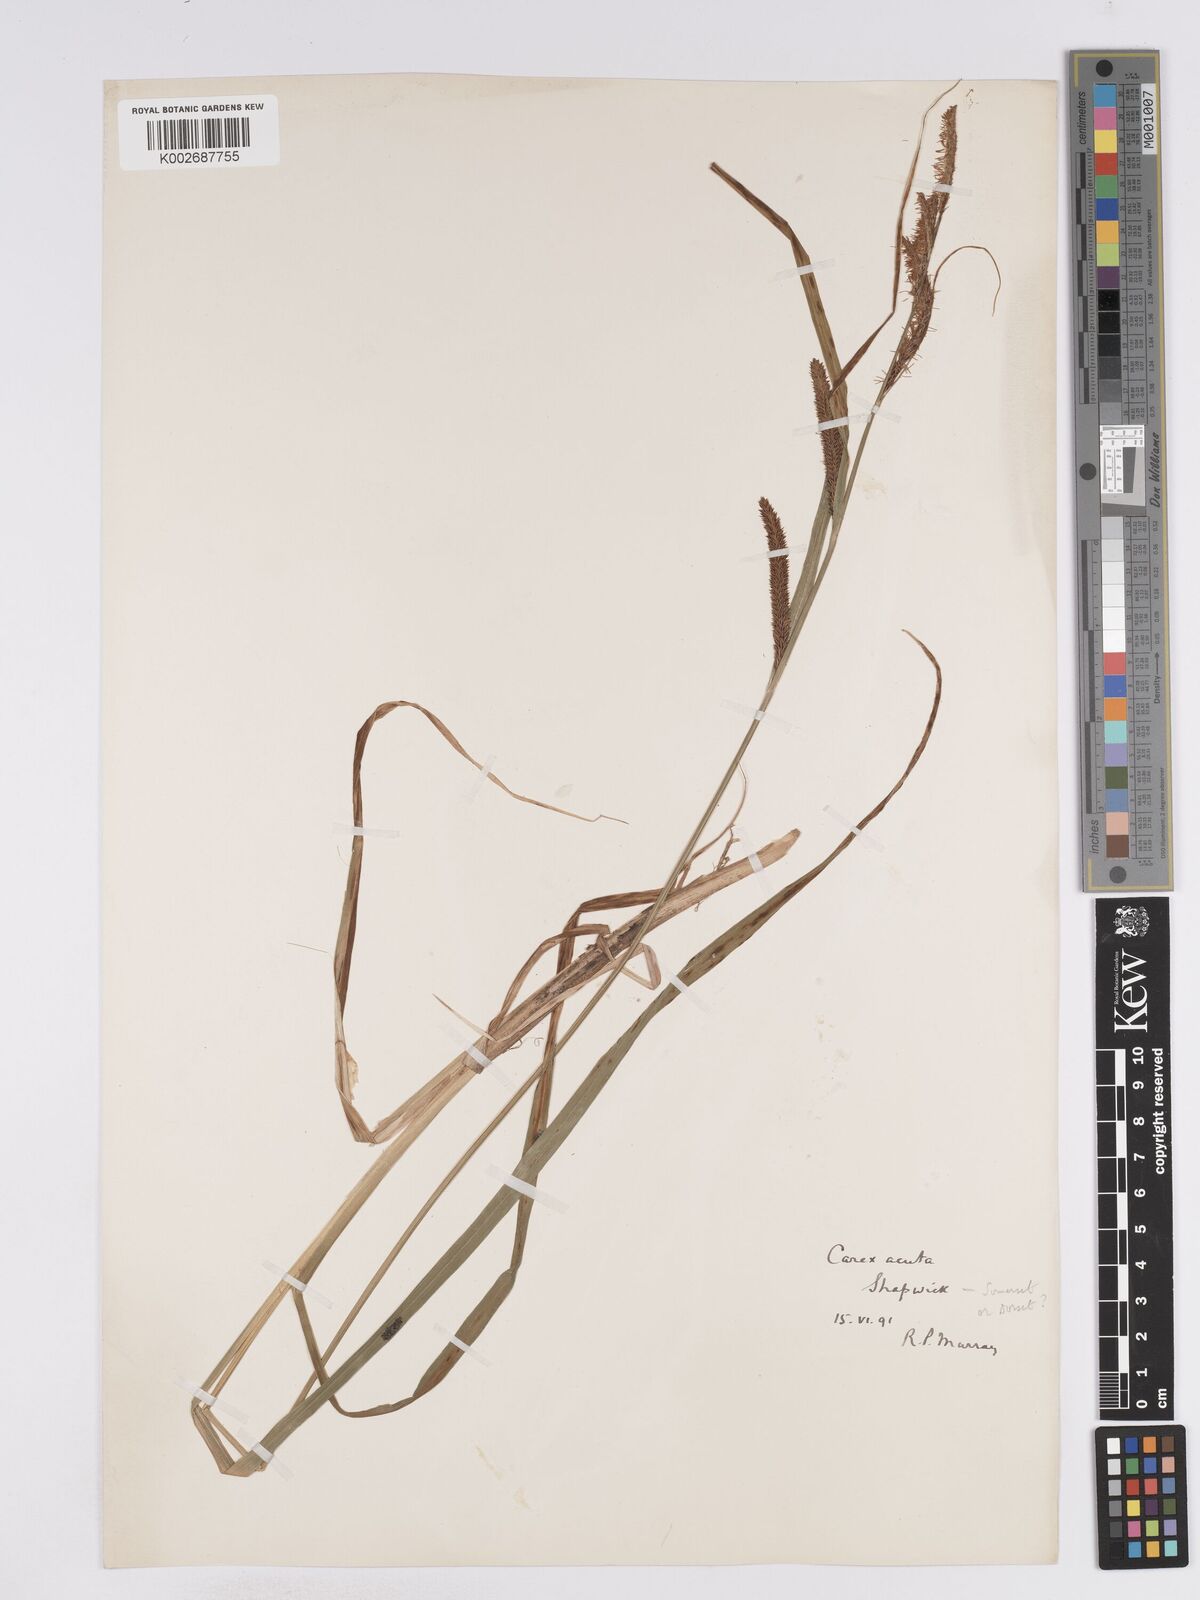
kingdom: Plantae
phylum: Tracheophyta
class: Liliopsida
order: Poales
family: Cyperaceae
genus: Carex
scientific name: Carex acuta
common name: Slender tufted-sedge
